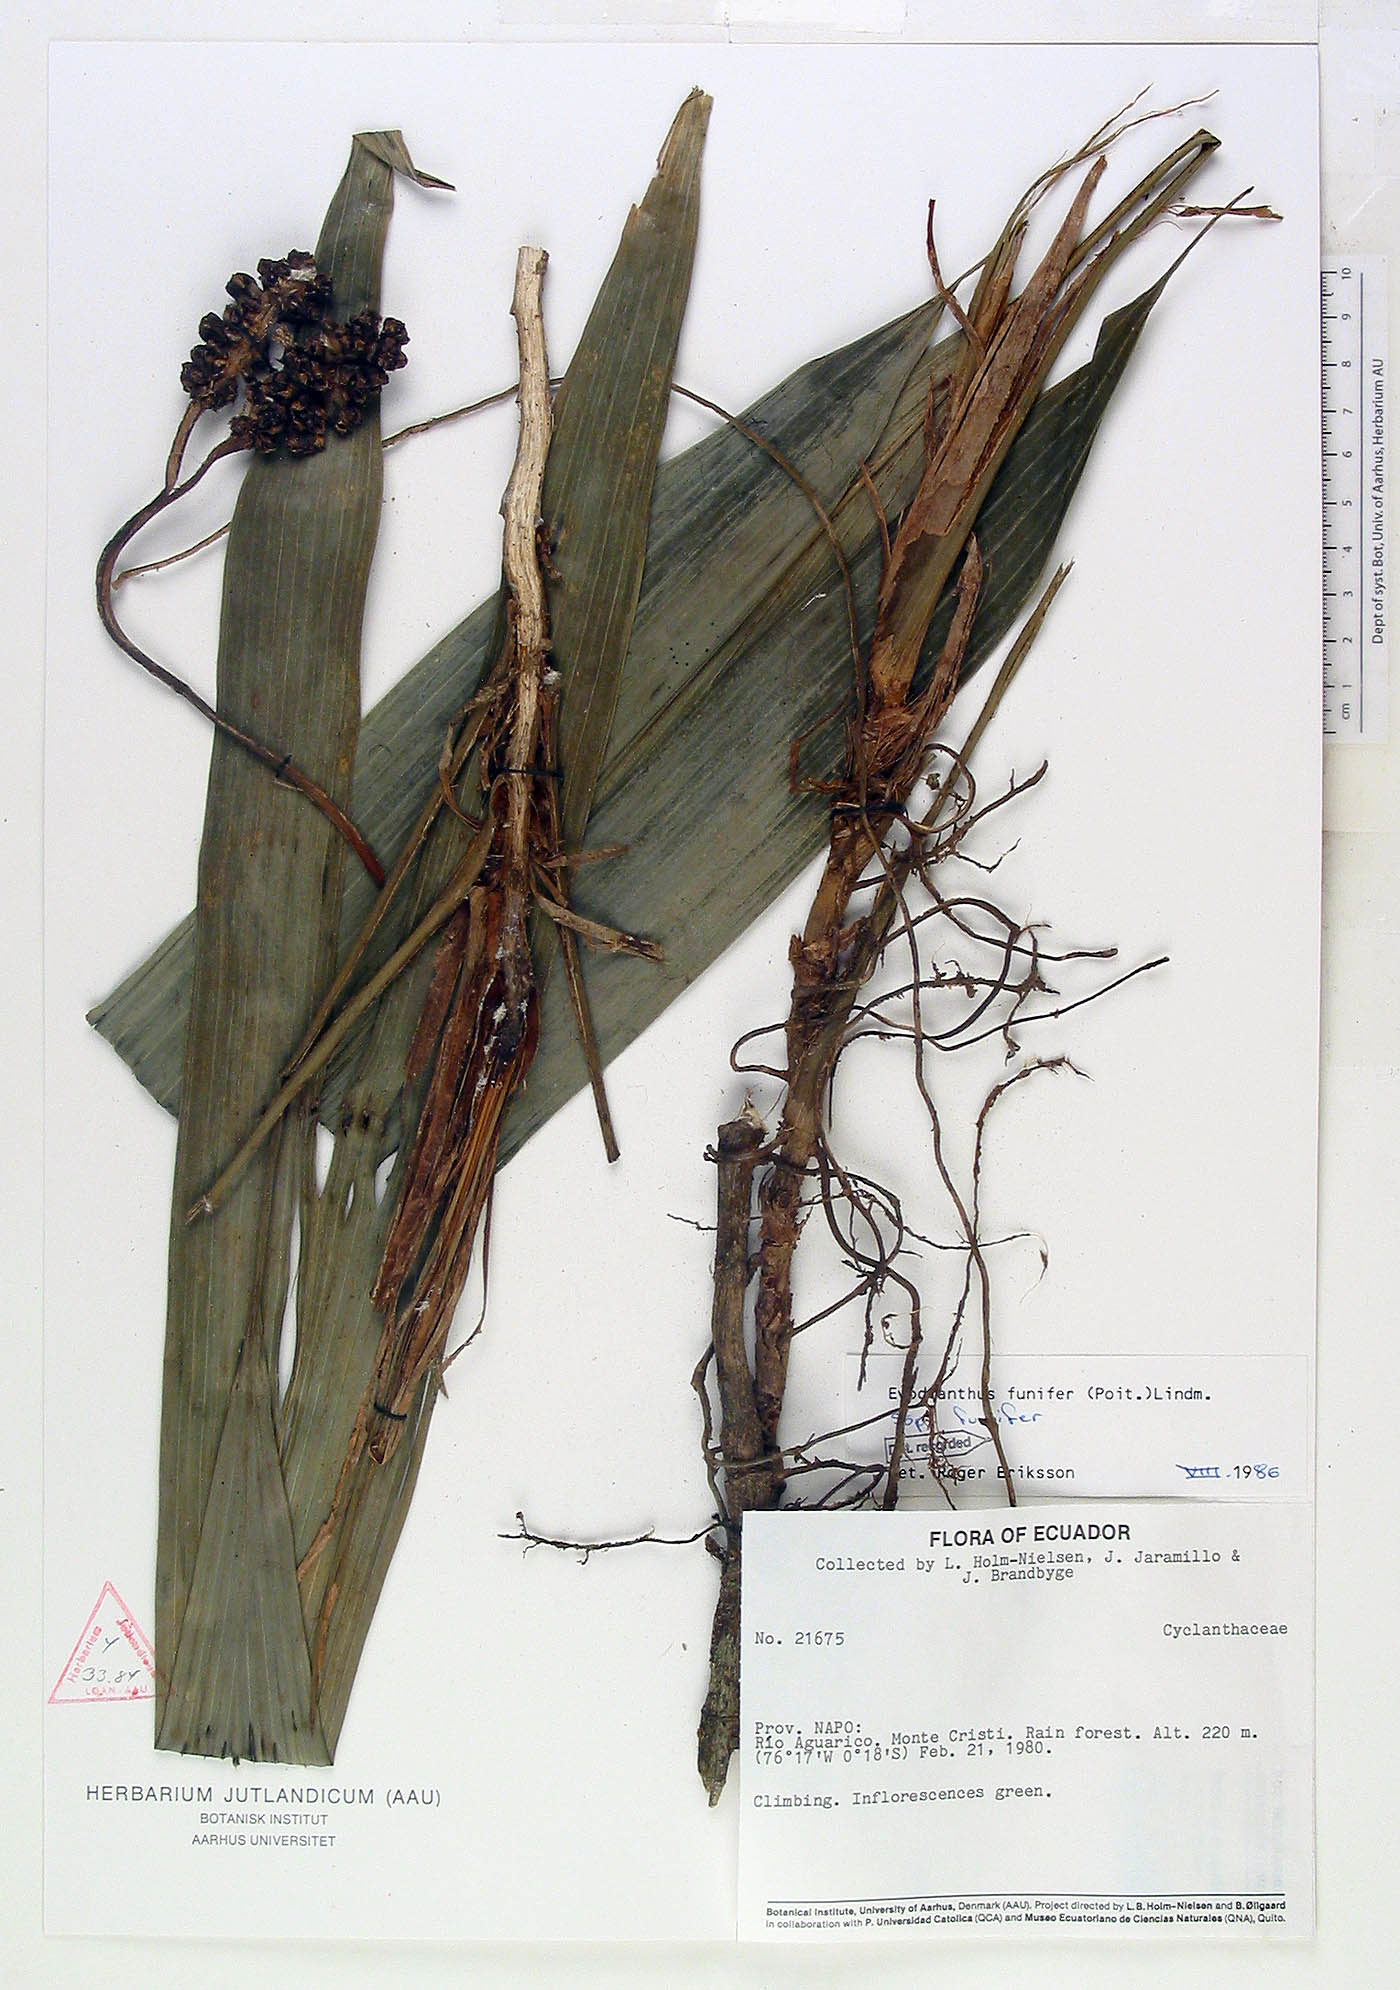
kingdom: Plantae
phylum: Tracheophyta
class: Liliopsida
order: Pandanales
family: Cyclanthaceae
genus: Evodianthus
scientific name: Evodianthus funifer
